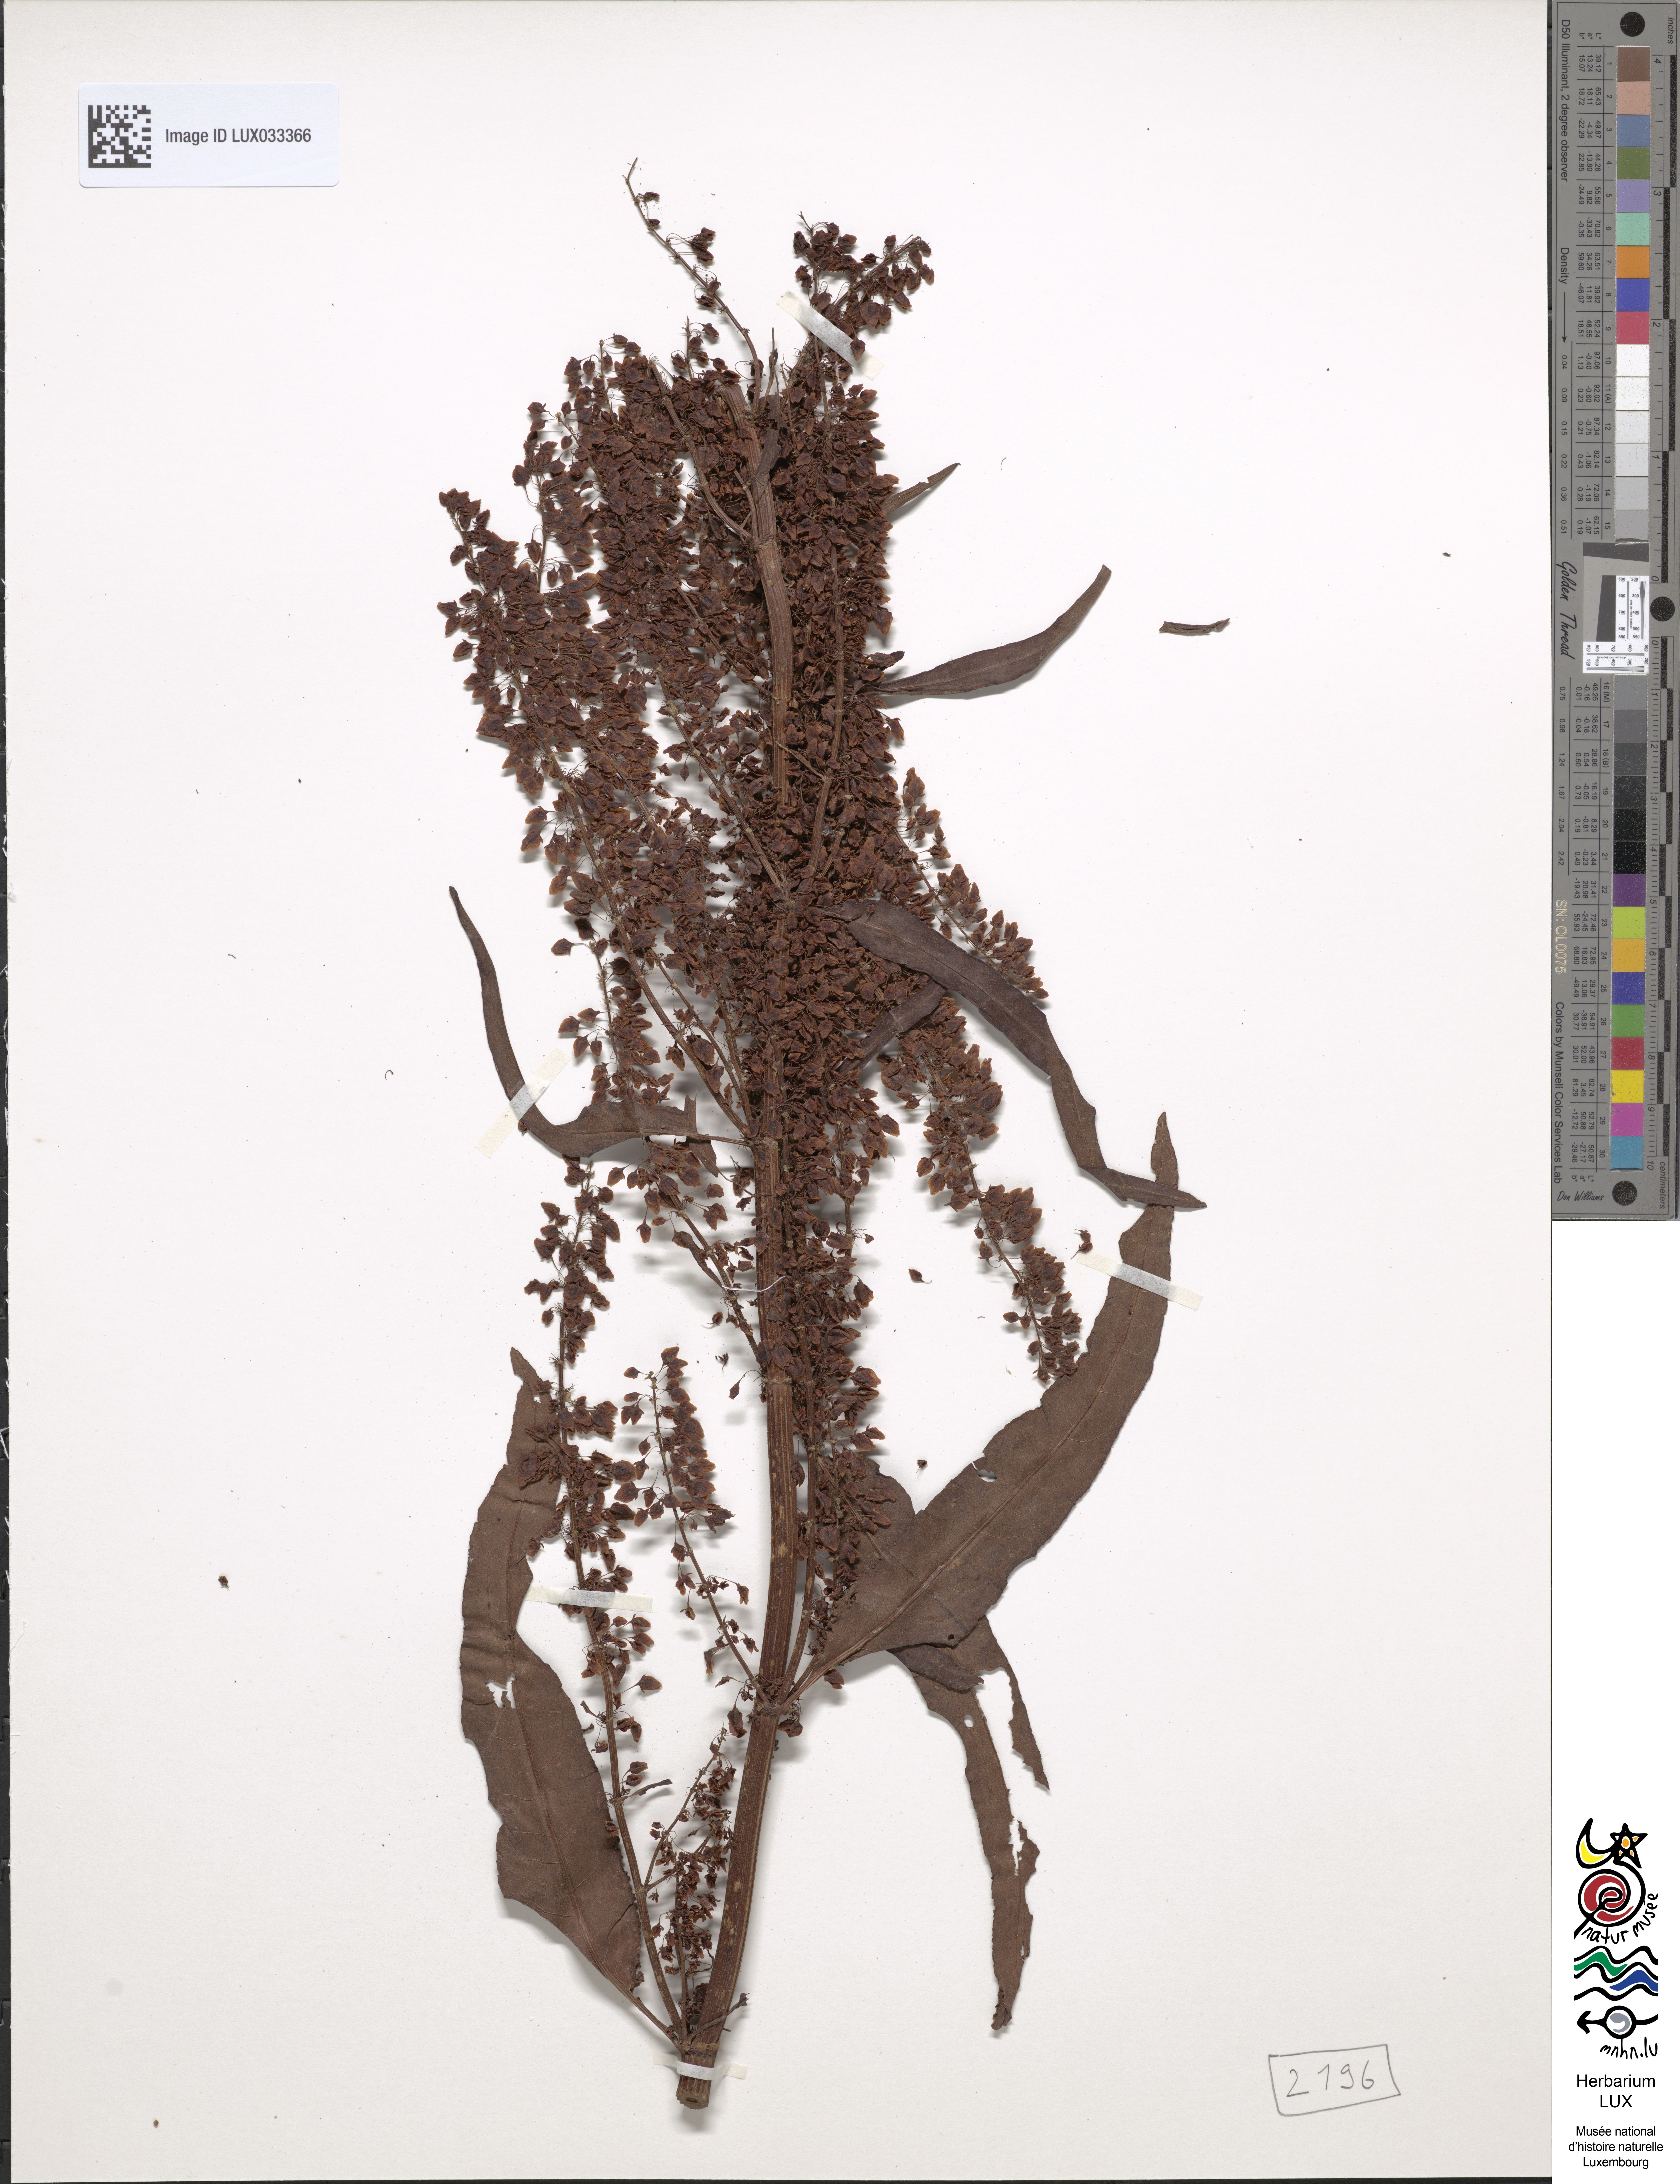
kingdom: Plantae
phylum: Tracheophyta
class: Magnoliopsida
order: Caryophyllales
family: Polygonaceae
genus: Rumex
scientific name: Rumex aquaticus
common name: Scottish dock
